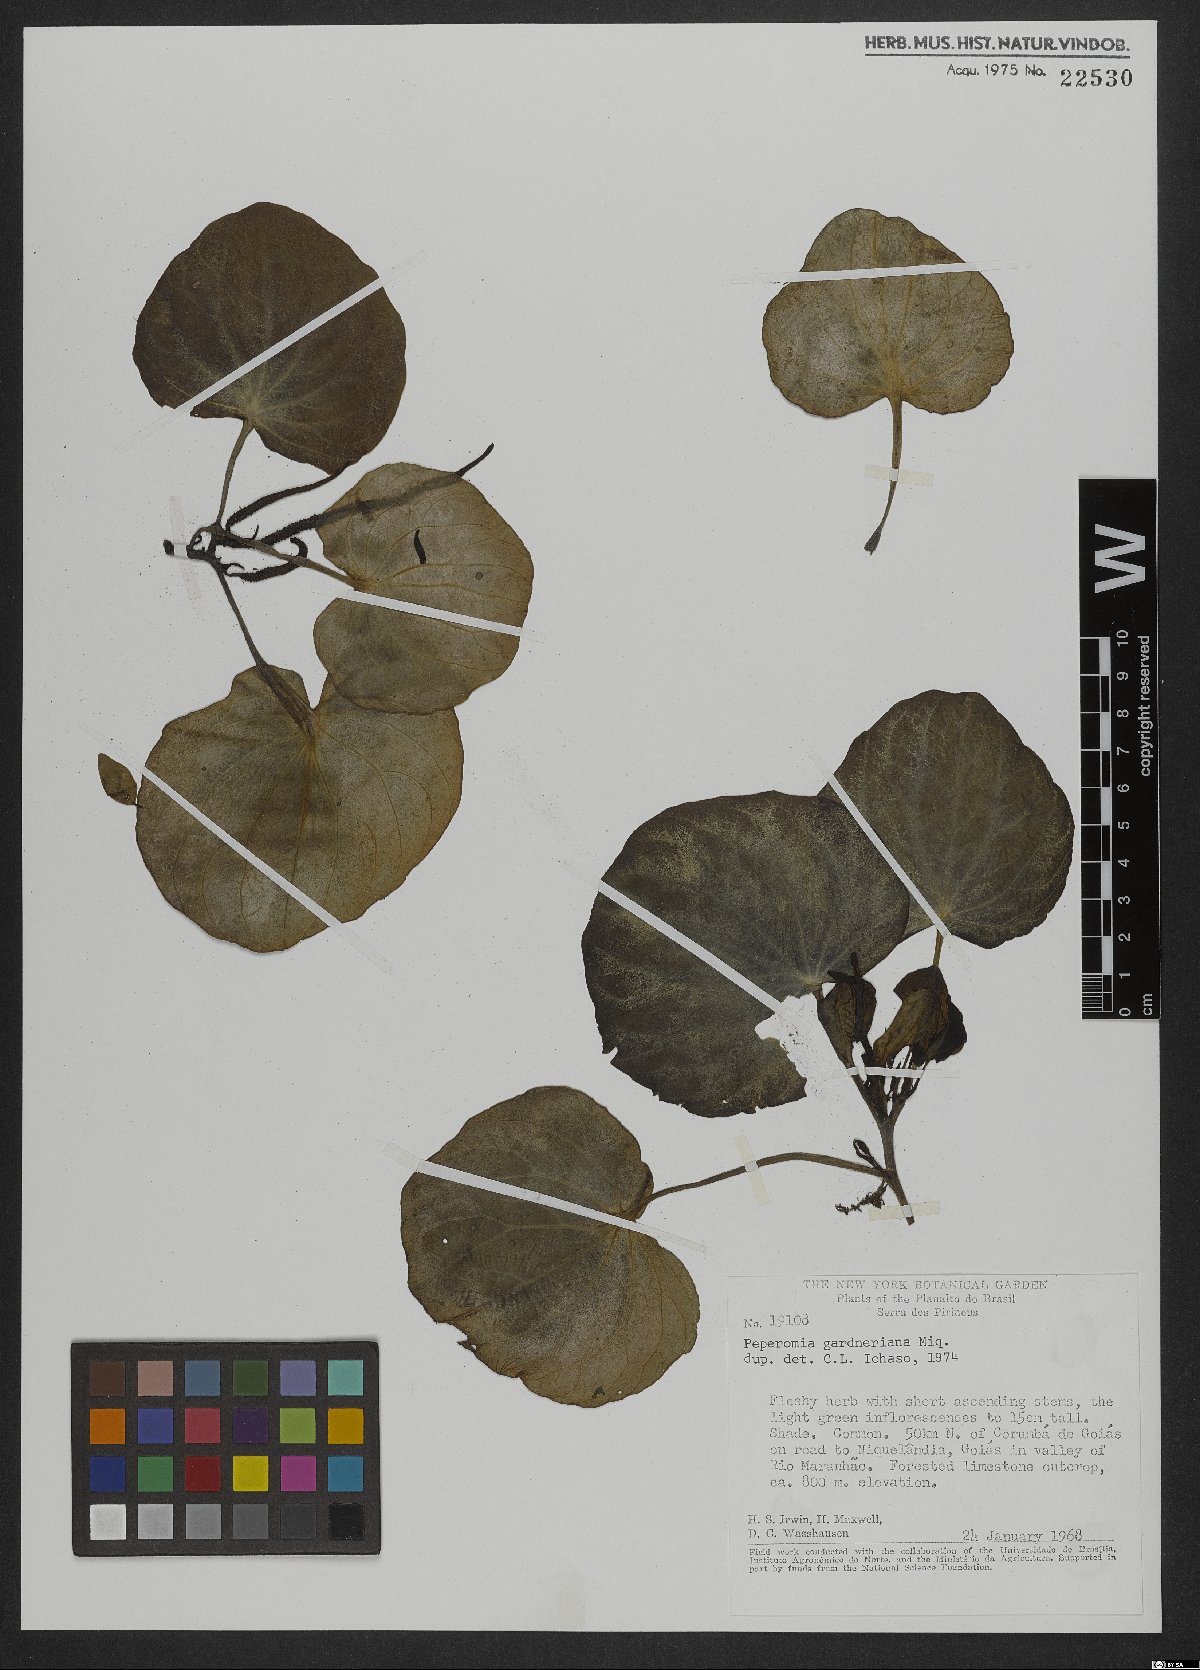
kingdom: Plantae
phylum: Tracheophyta
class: Magnoliopsida
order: Piperales
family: Piperaceae
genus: Peperomia
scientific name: Peperomia gardneriana
